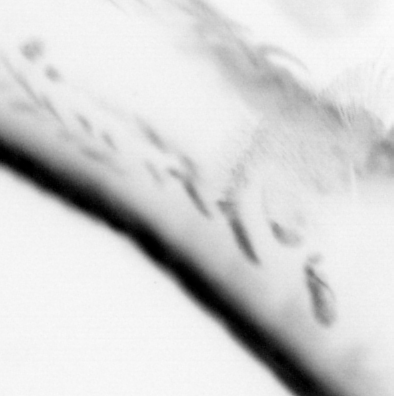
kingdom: Animalia
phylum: Chordata
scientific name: Chordata
